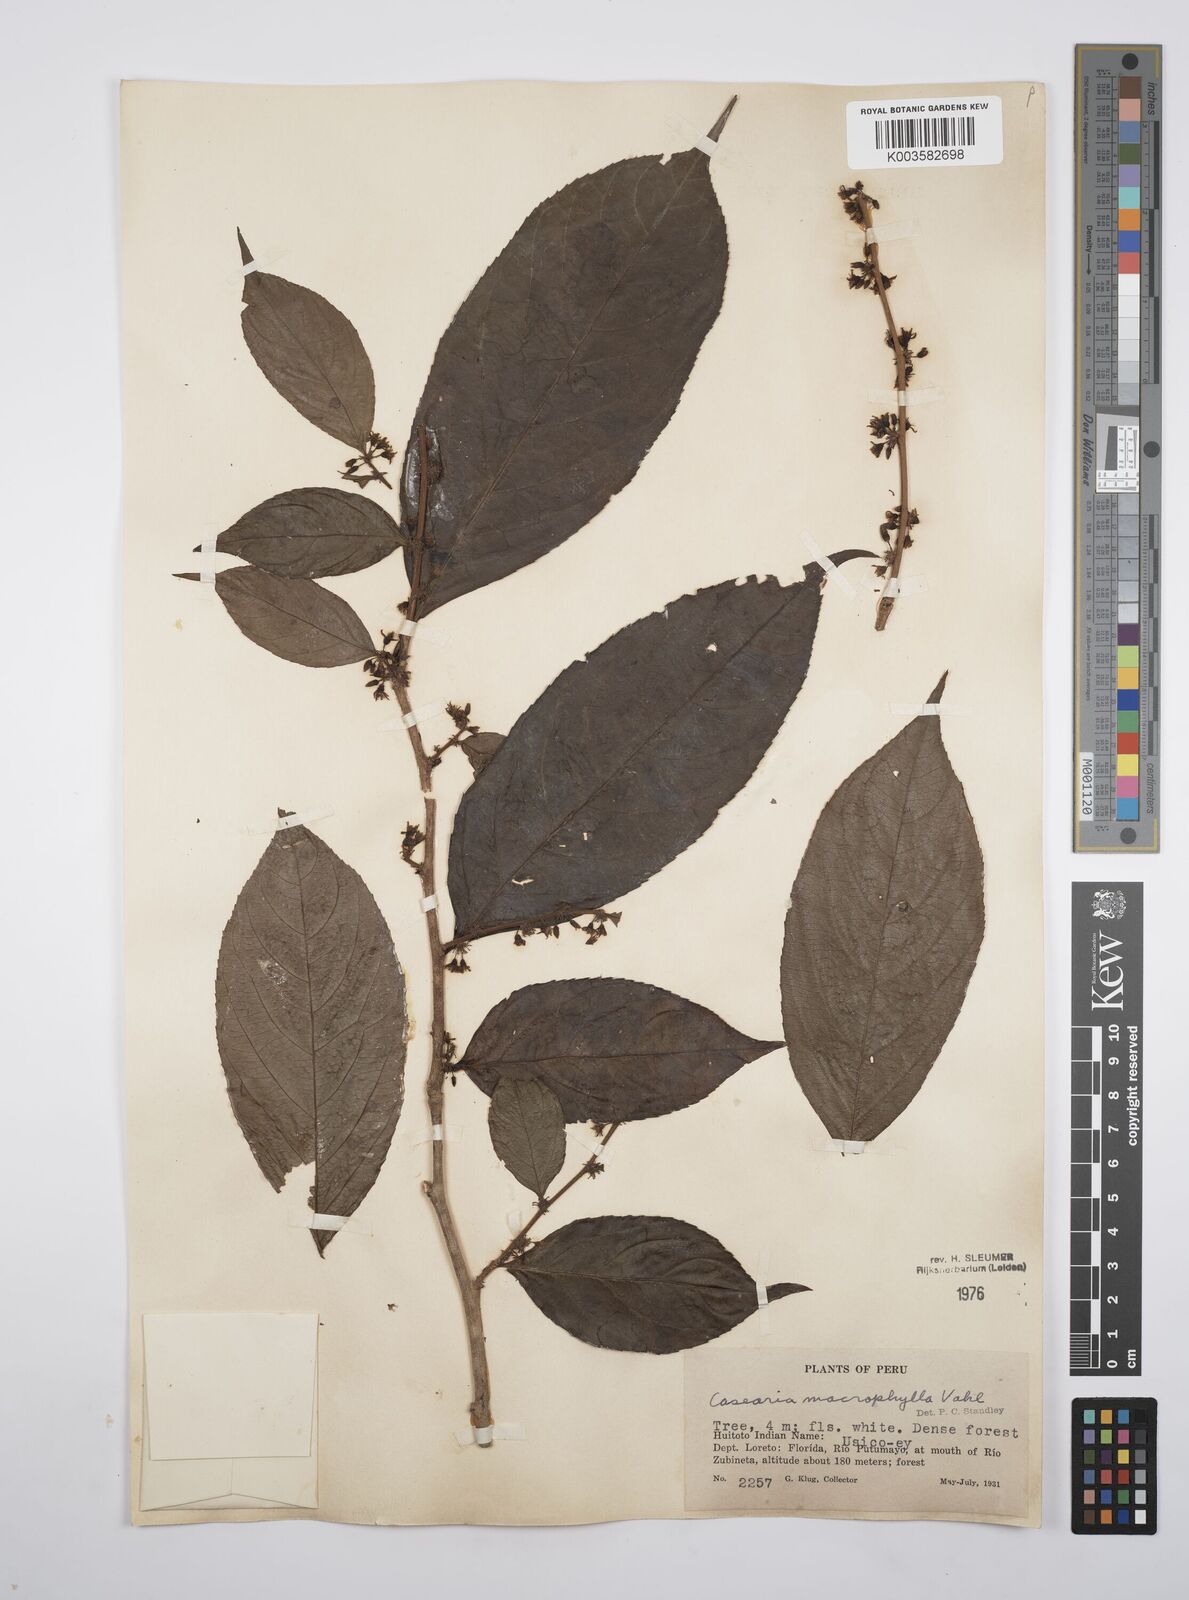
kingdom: Plantae
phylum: Tracheophyta
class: Magnoliopsida
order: Malpighiales
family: Salicaceae
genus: Casearia
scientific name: Casearia pitumba
